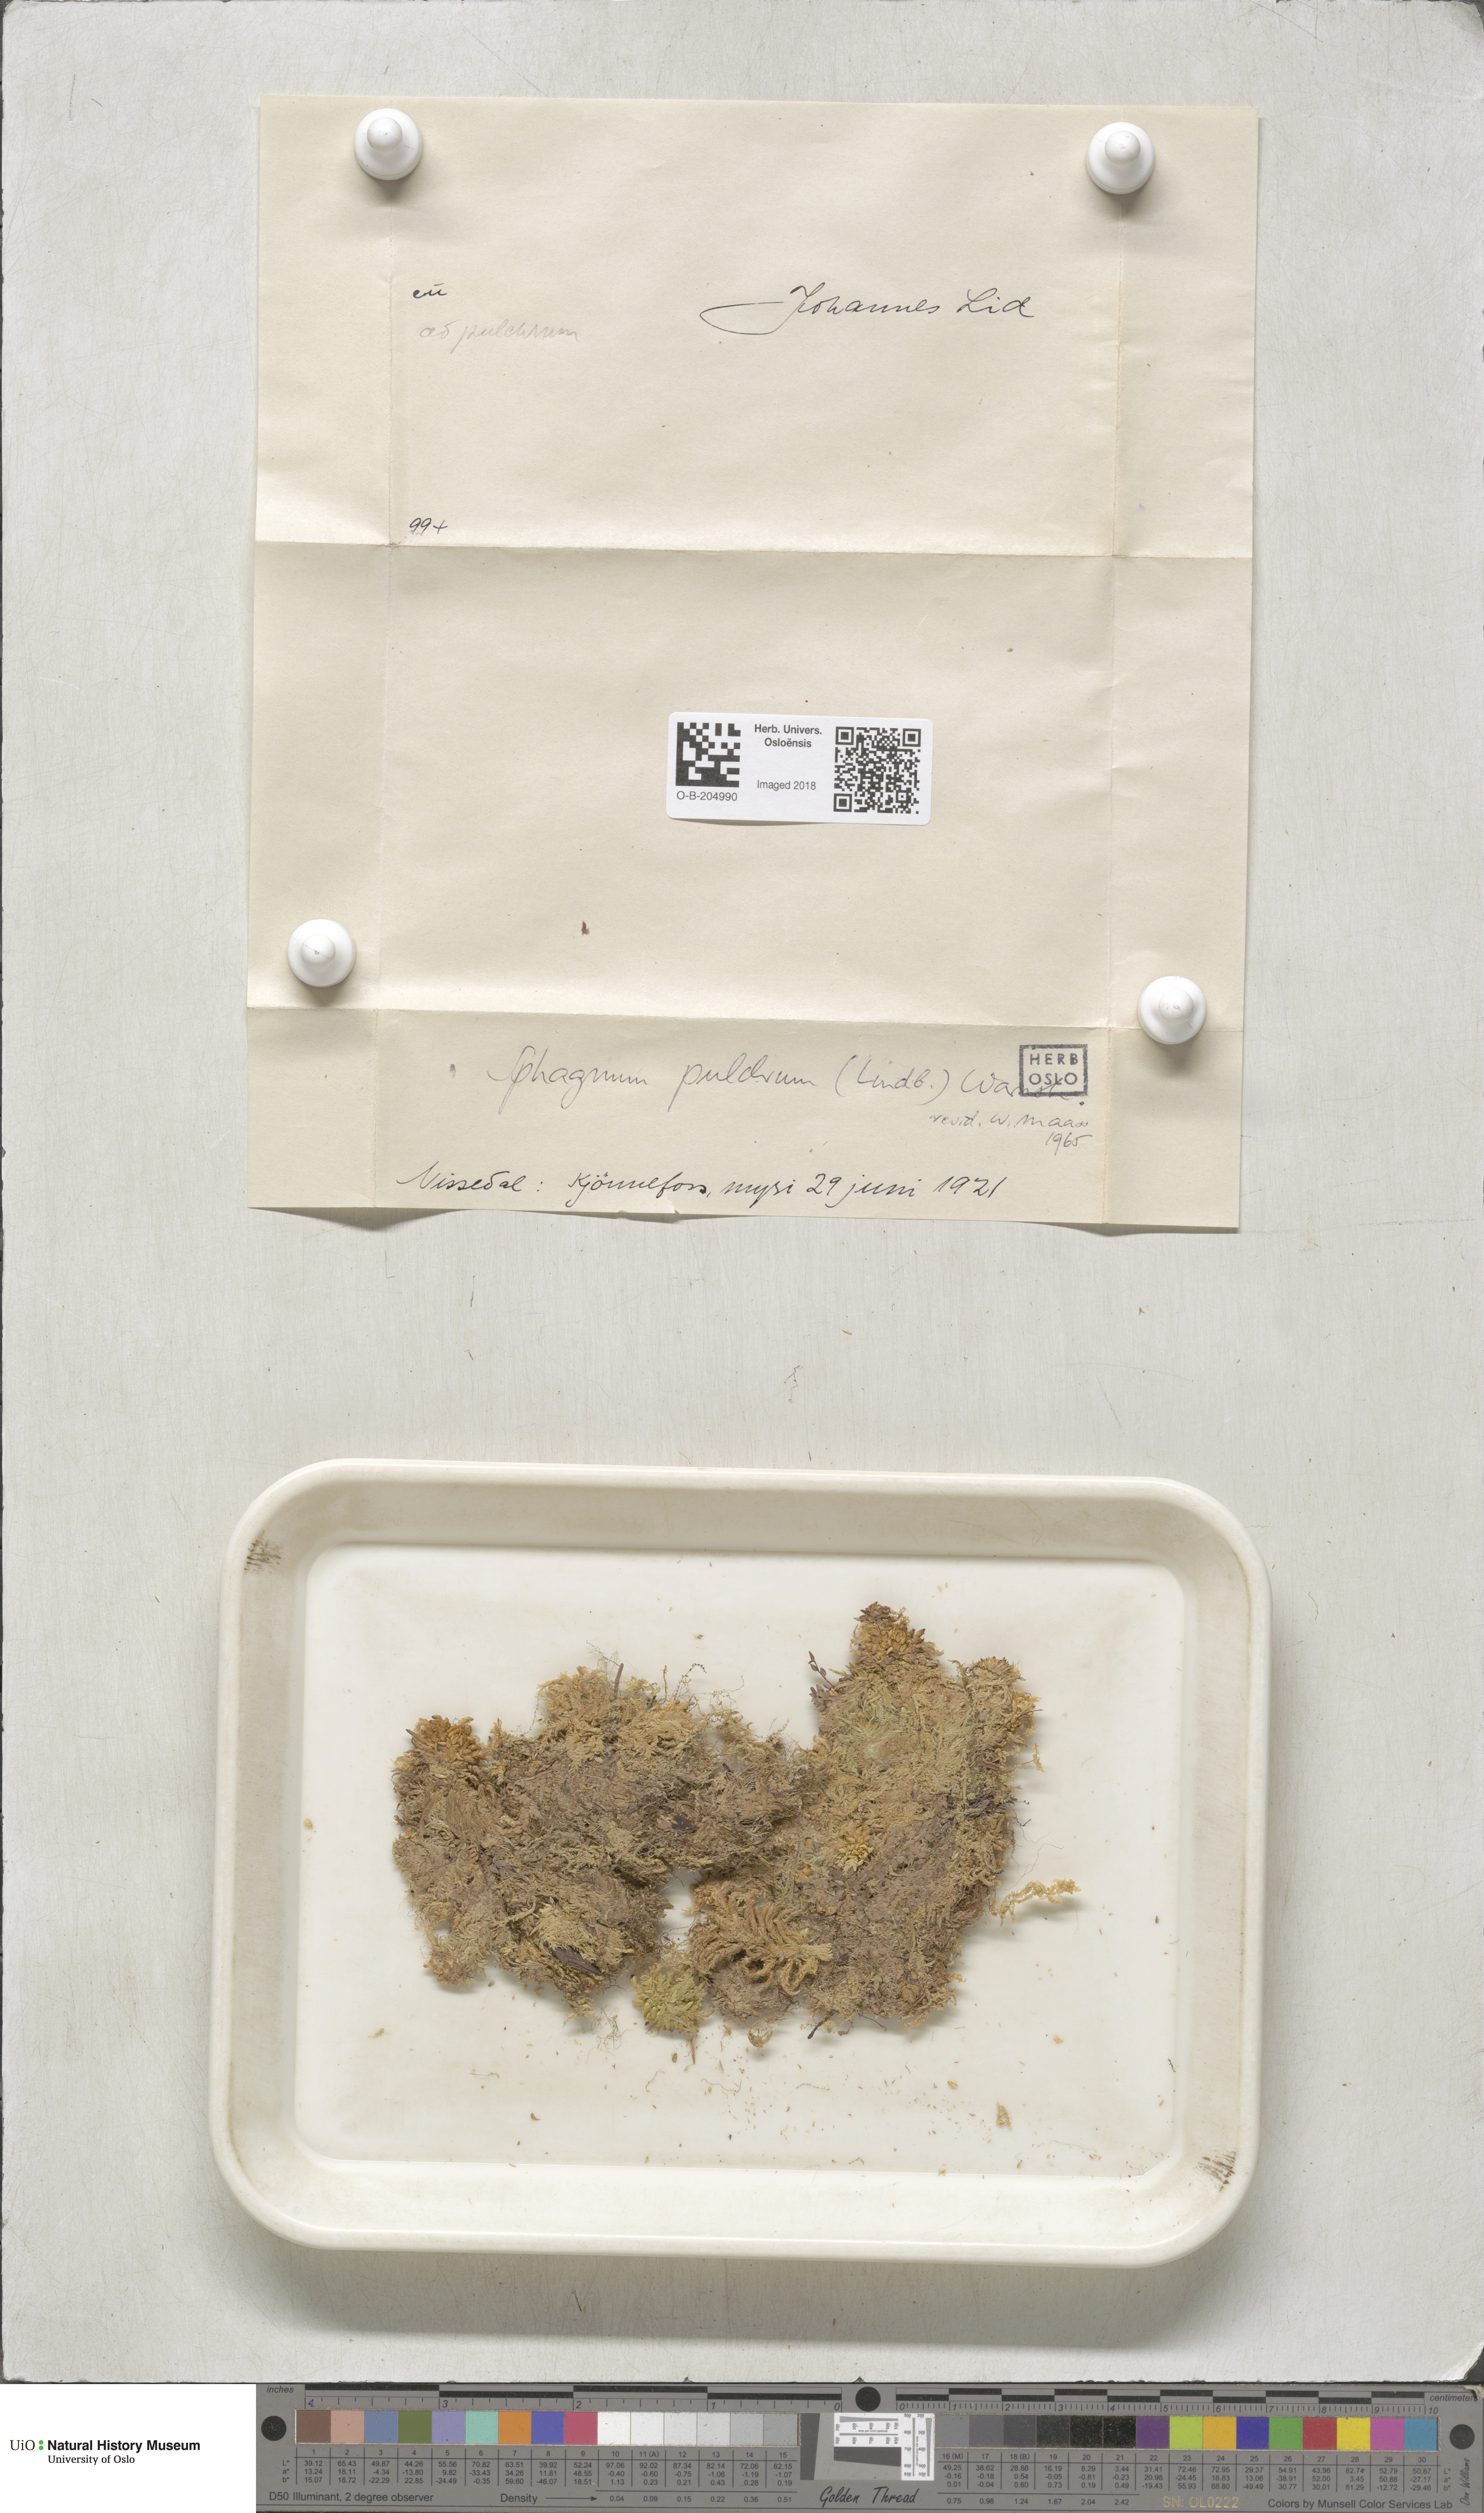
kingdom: Plantae
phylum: Bryophyta
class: Sphagnopsida
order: Sphagnales
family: Sphagnaceae
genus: Sphagnum
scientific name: Sphagnum pulchrum
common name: Beautiful peat moss
